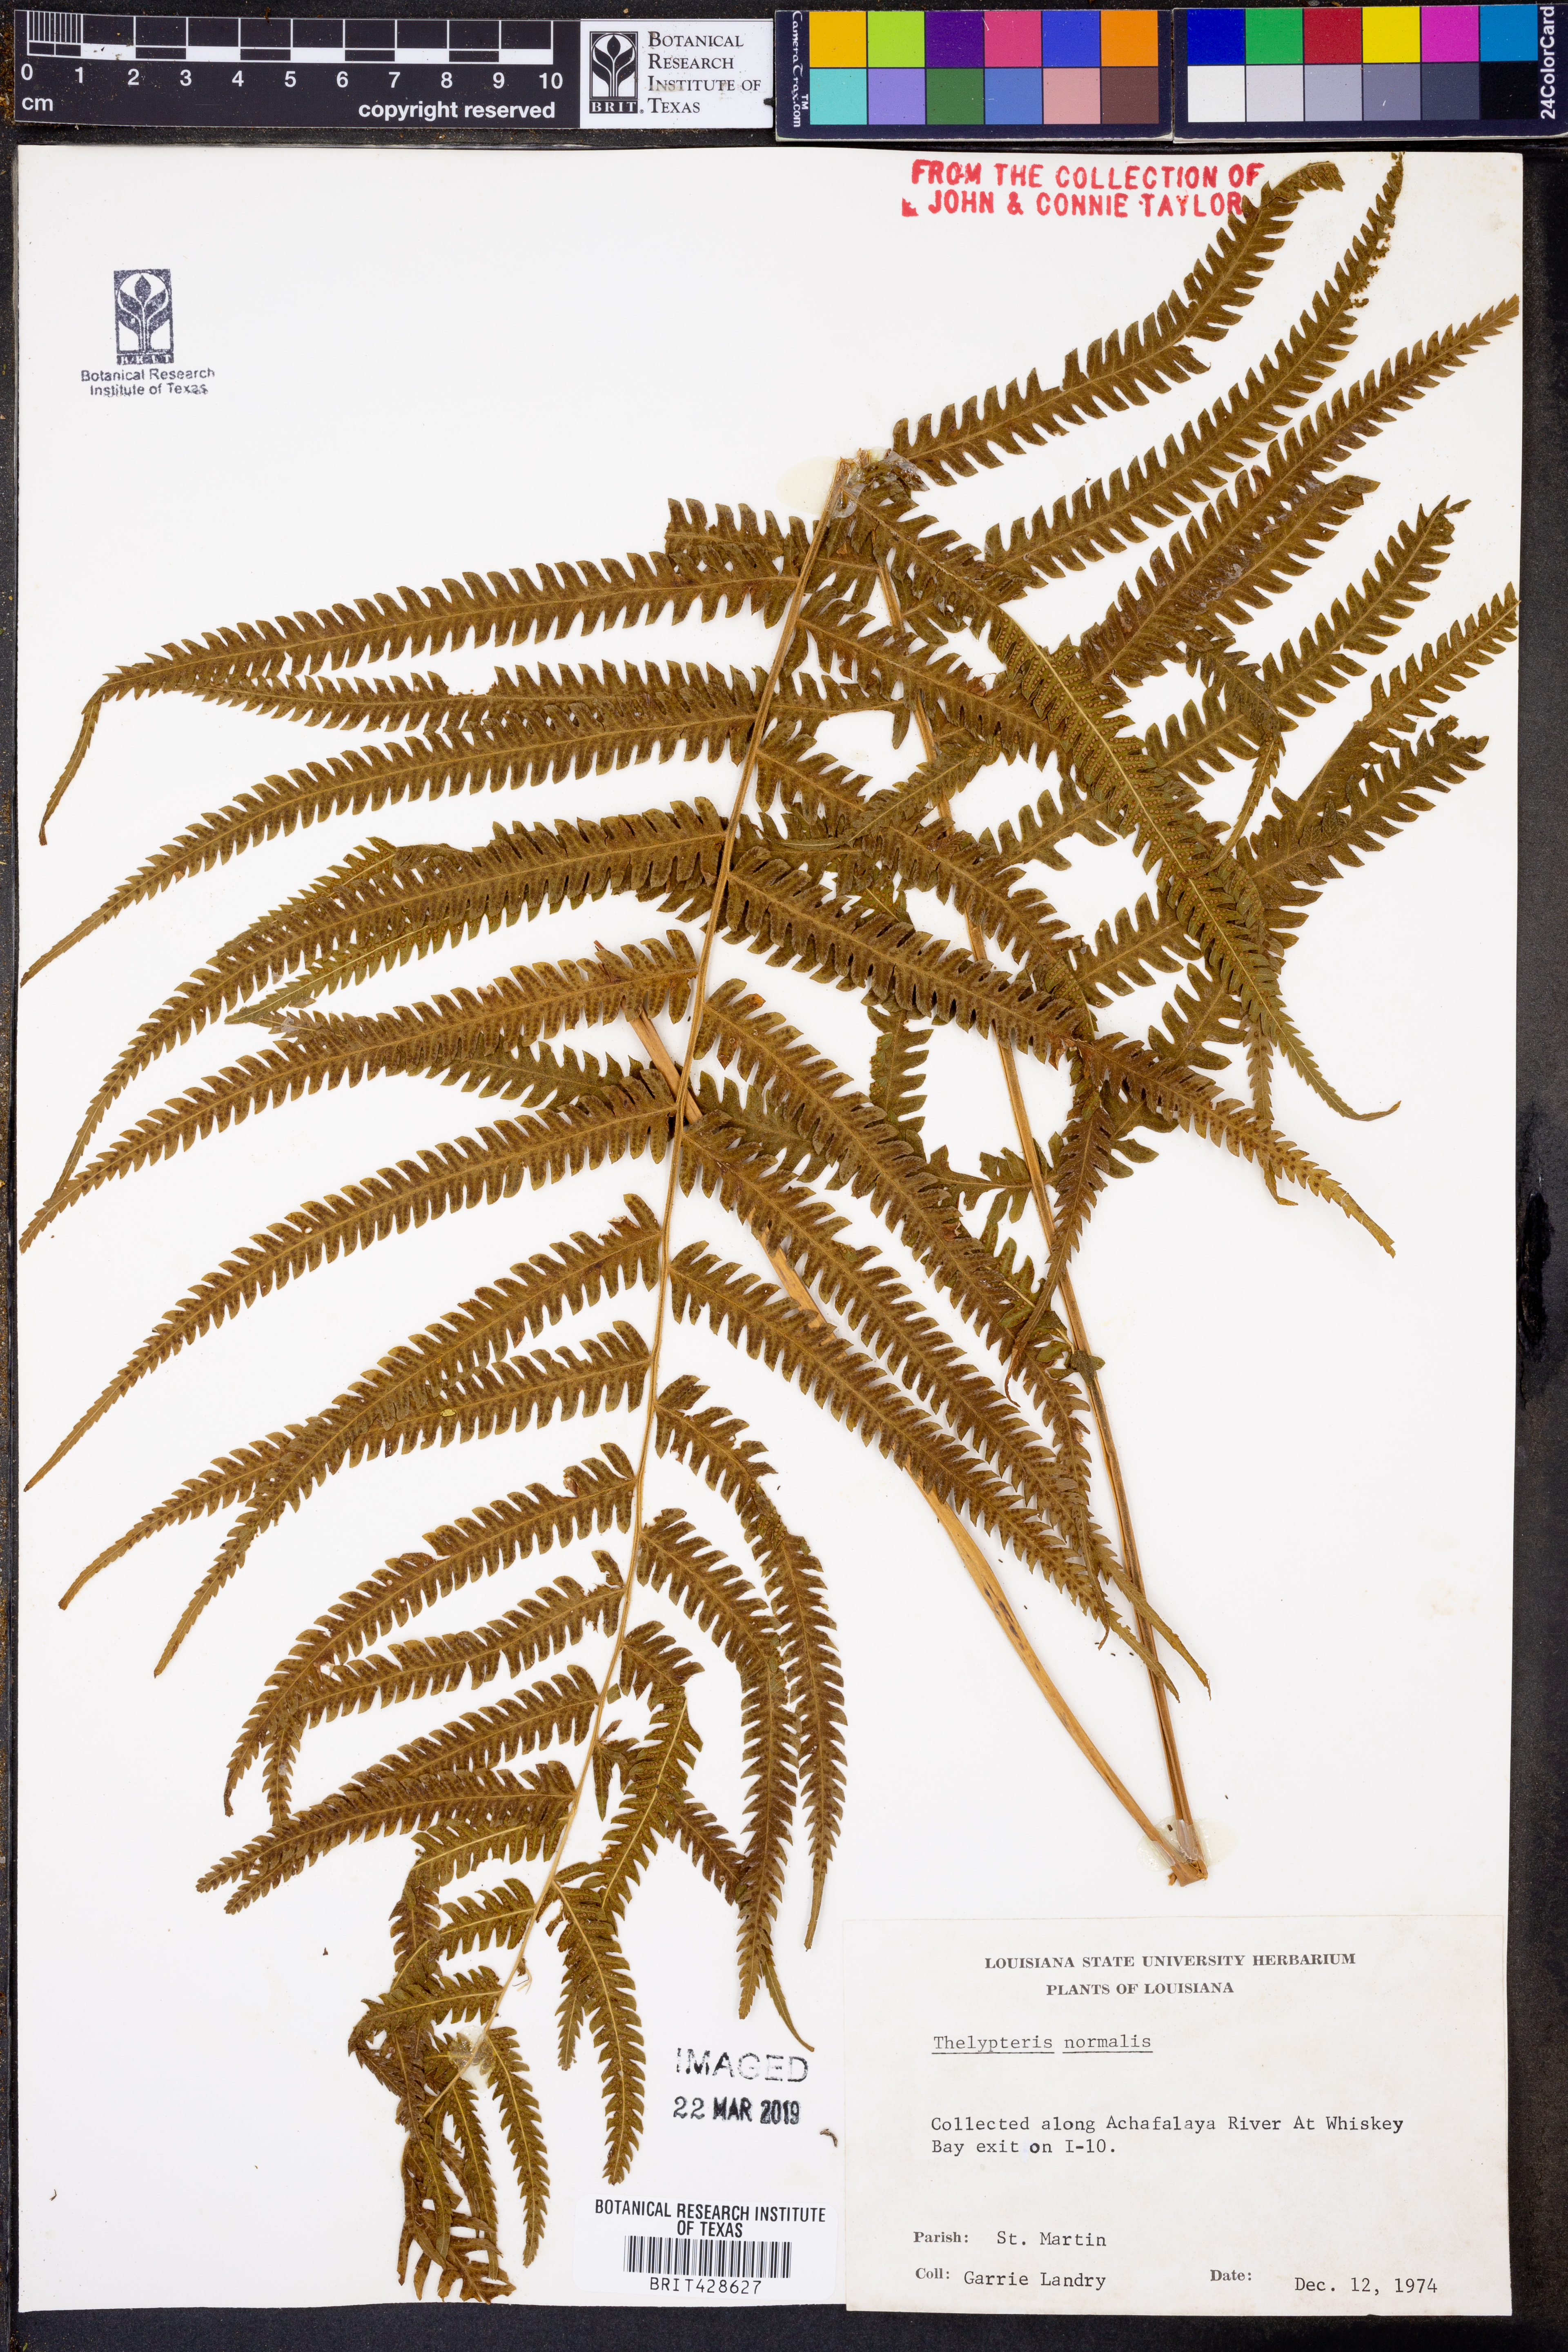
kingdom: Plantae
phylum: Tracheophyta
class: Polypodiopsida
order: Polypodiales
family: Thelypteridaceae
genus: Pelazoneuron
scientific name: Pelazoneuron kunthii
